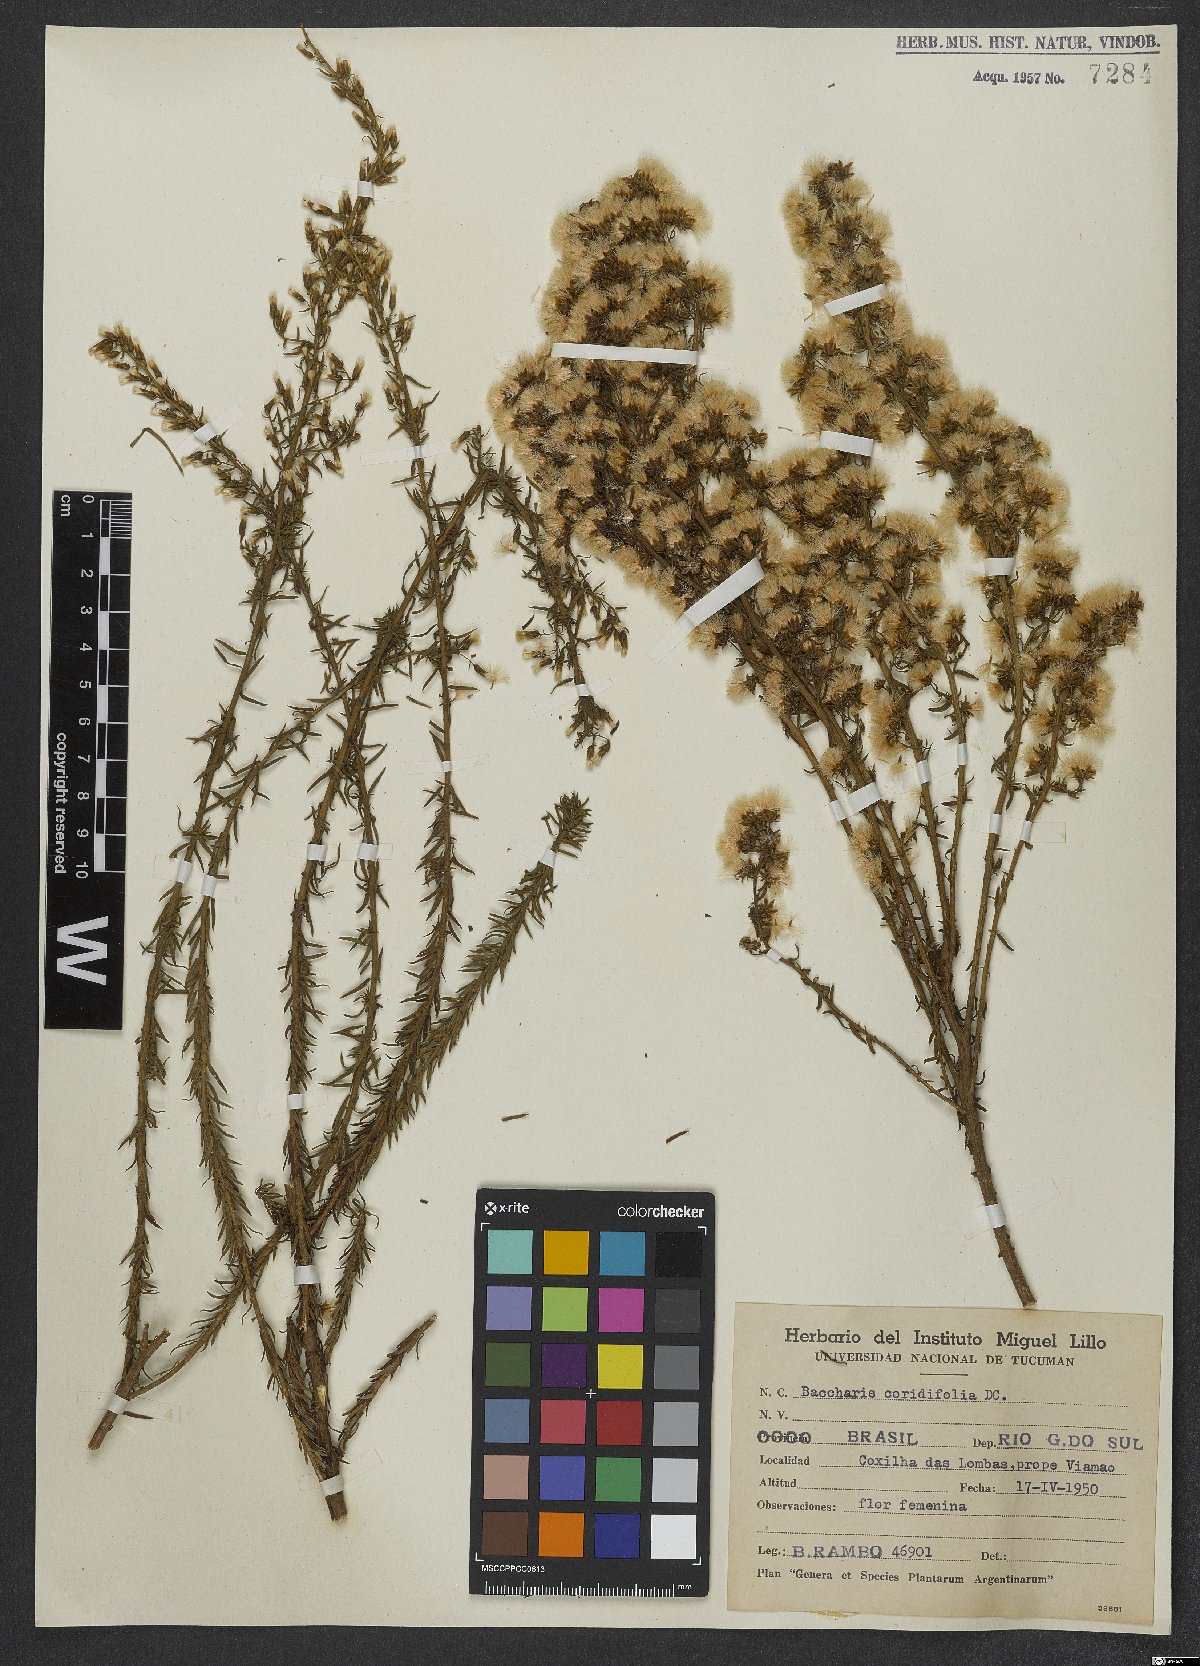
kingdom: Plantae
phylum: Tracheophyta
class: Magnoliopsida
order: Asterales
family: Asteraceae
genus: Baccharis
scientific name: Baccharis coridifolia
